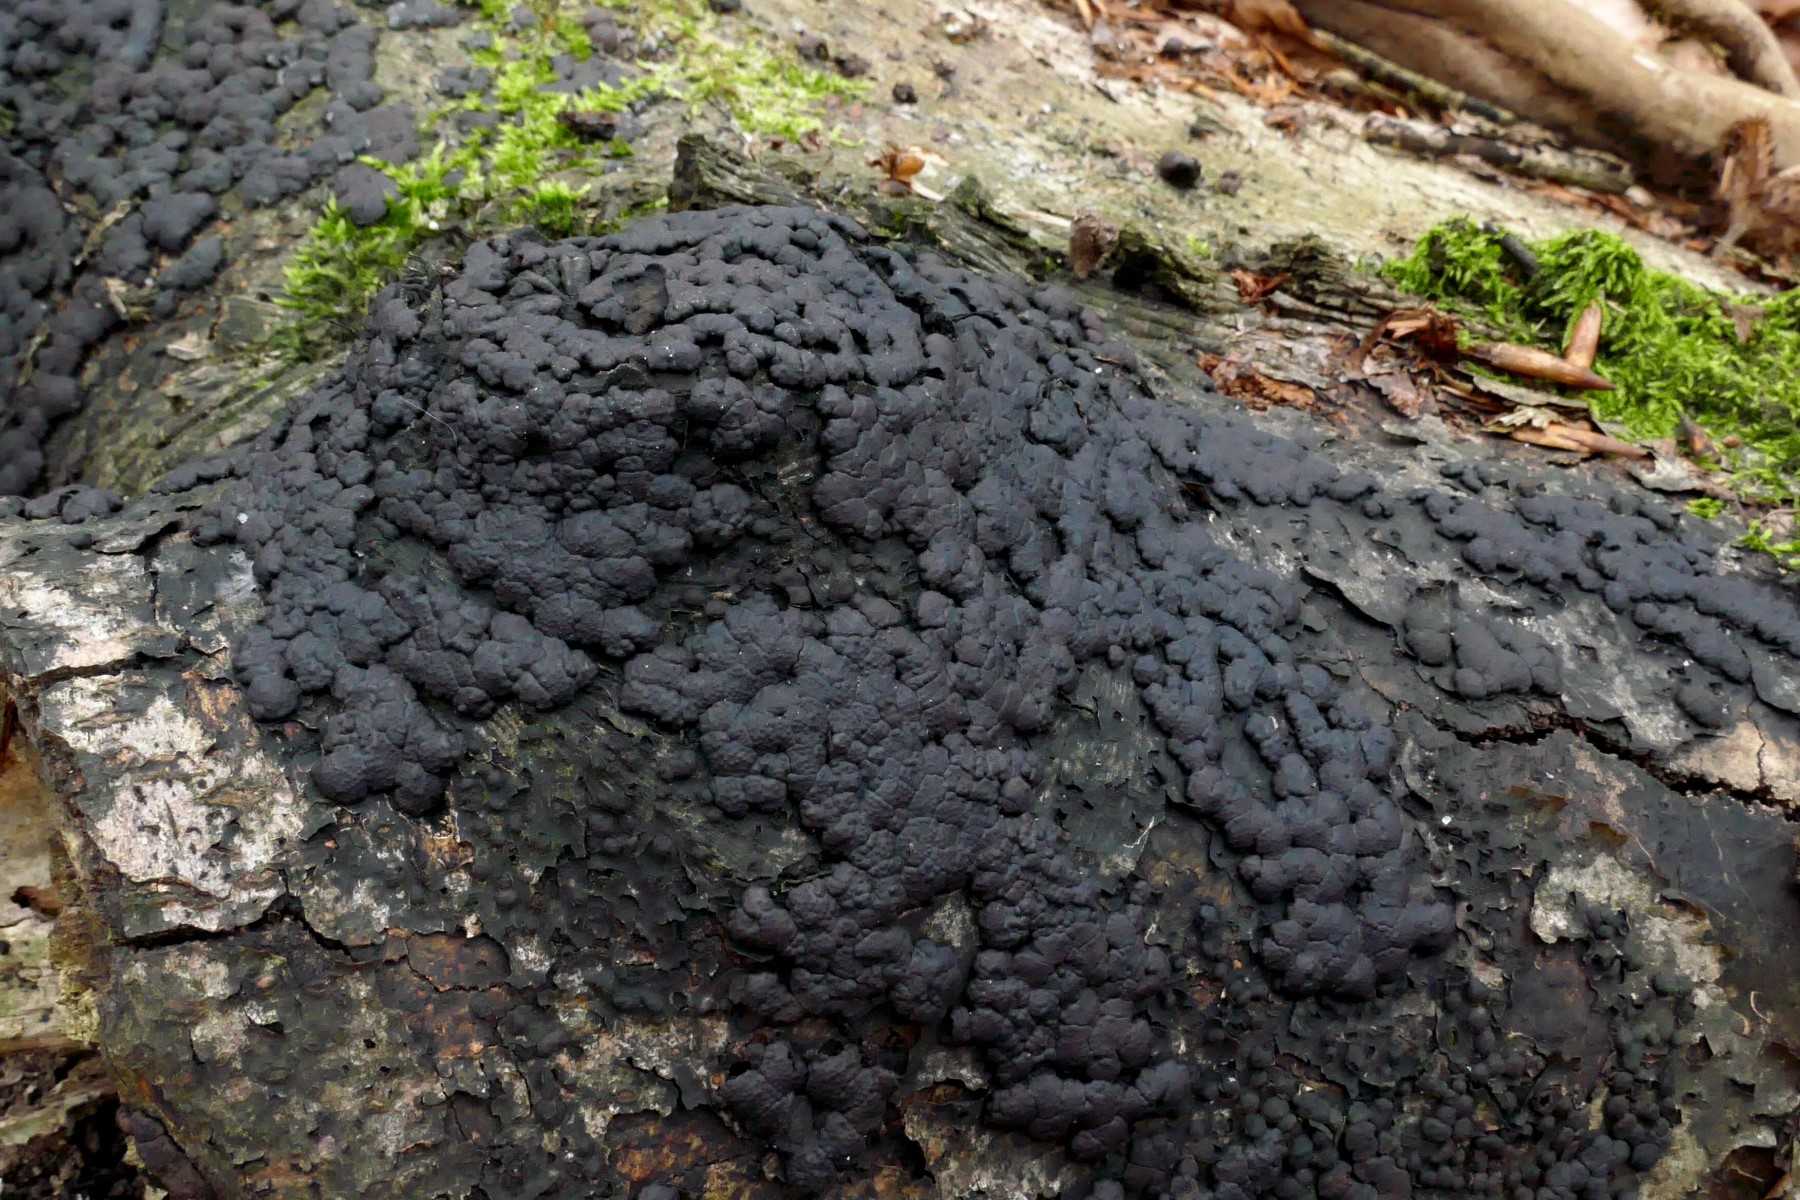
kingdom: Fungi
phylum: Ascomycota
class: Sordariomycetes
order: Xylariales
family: Hypoxylaceae
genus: Jackrogersella
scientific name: Jackrogersella cohaerens
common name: sammenflydende kulbær
